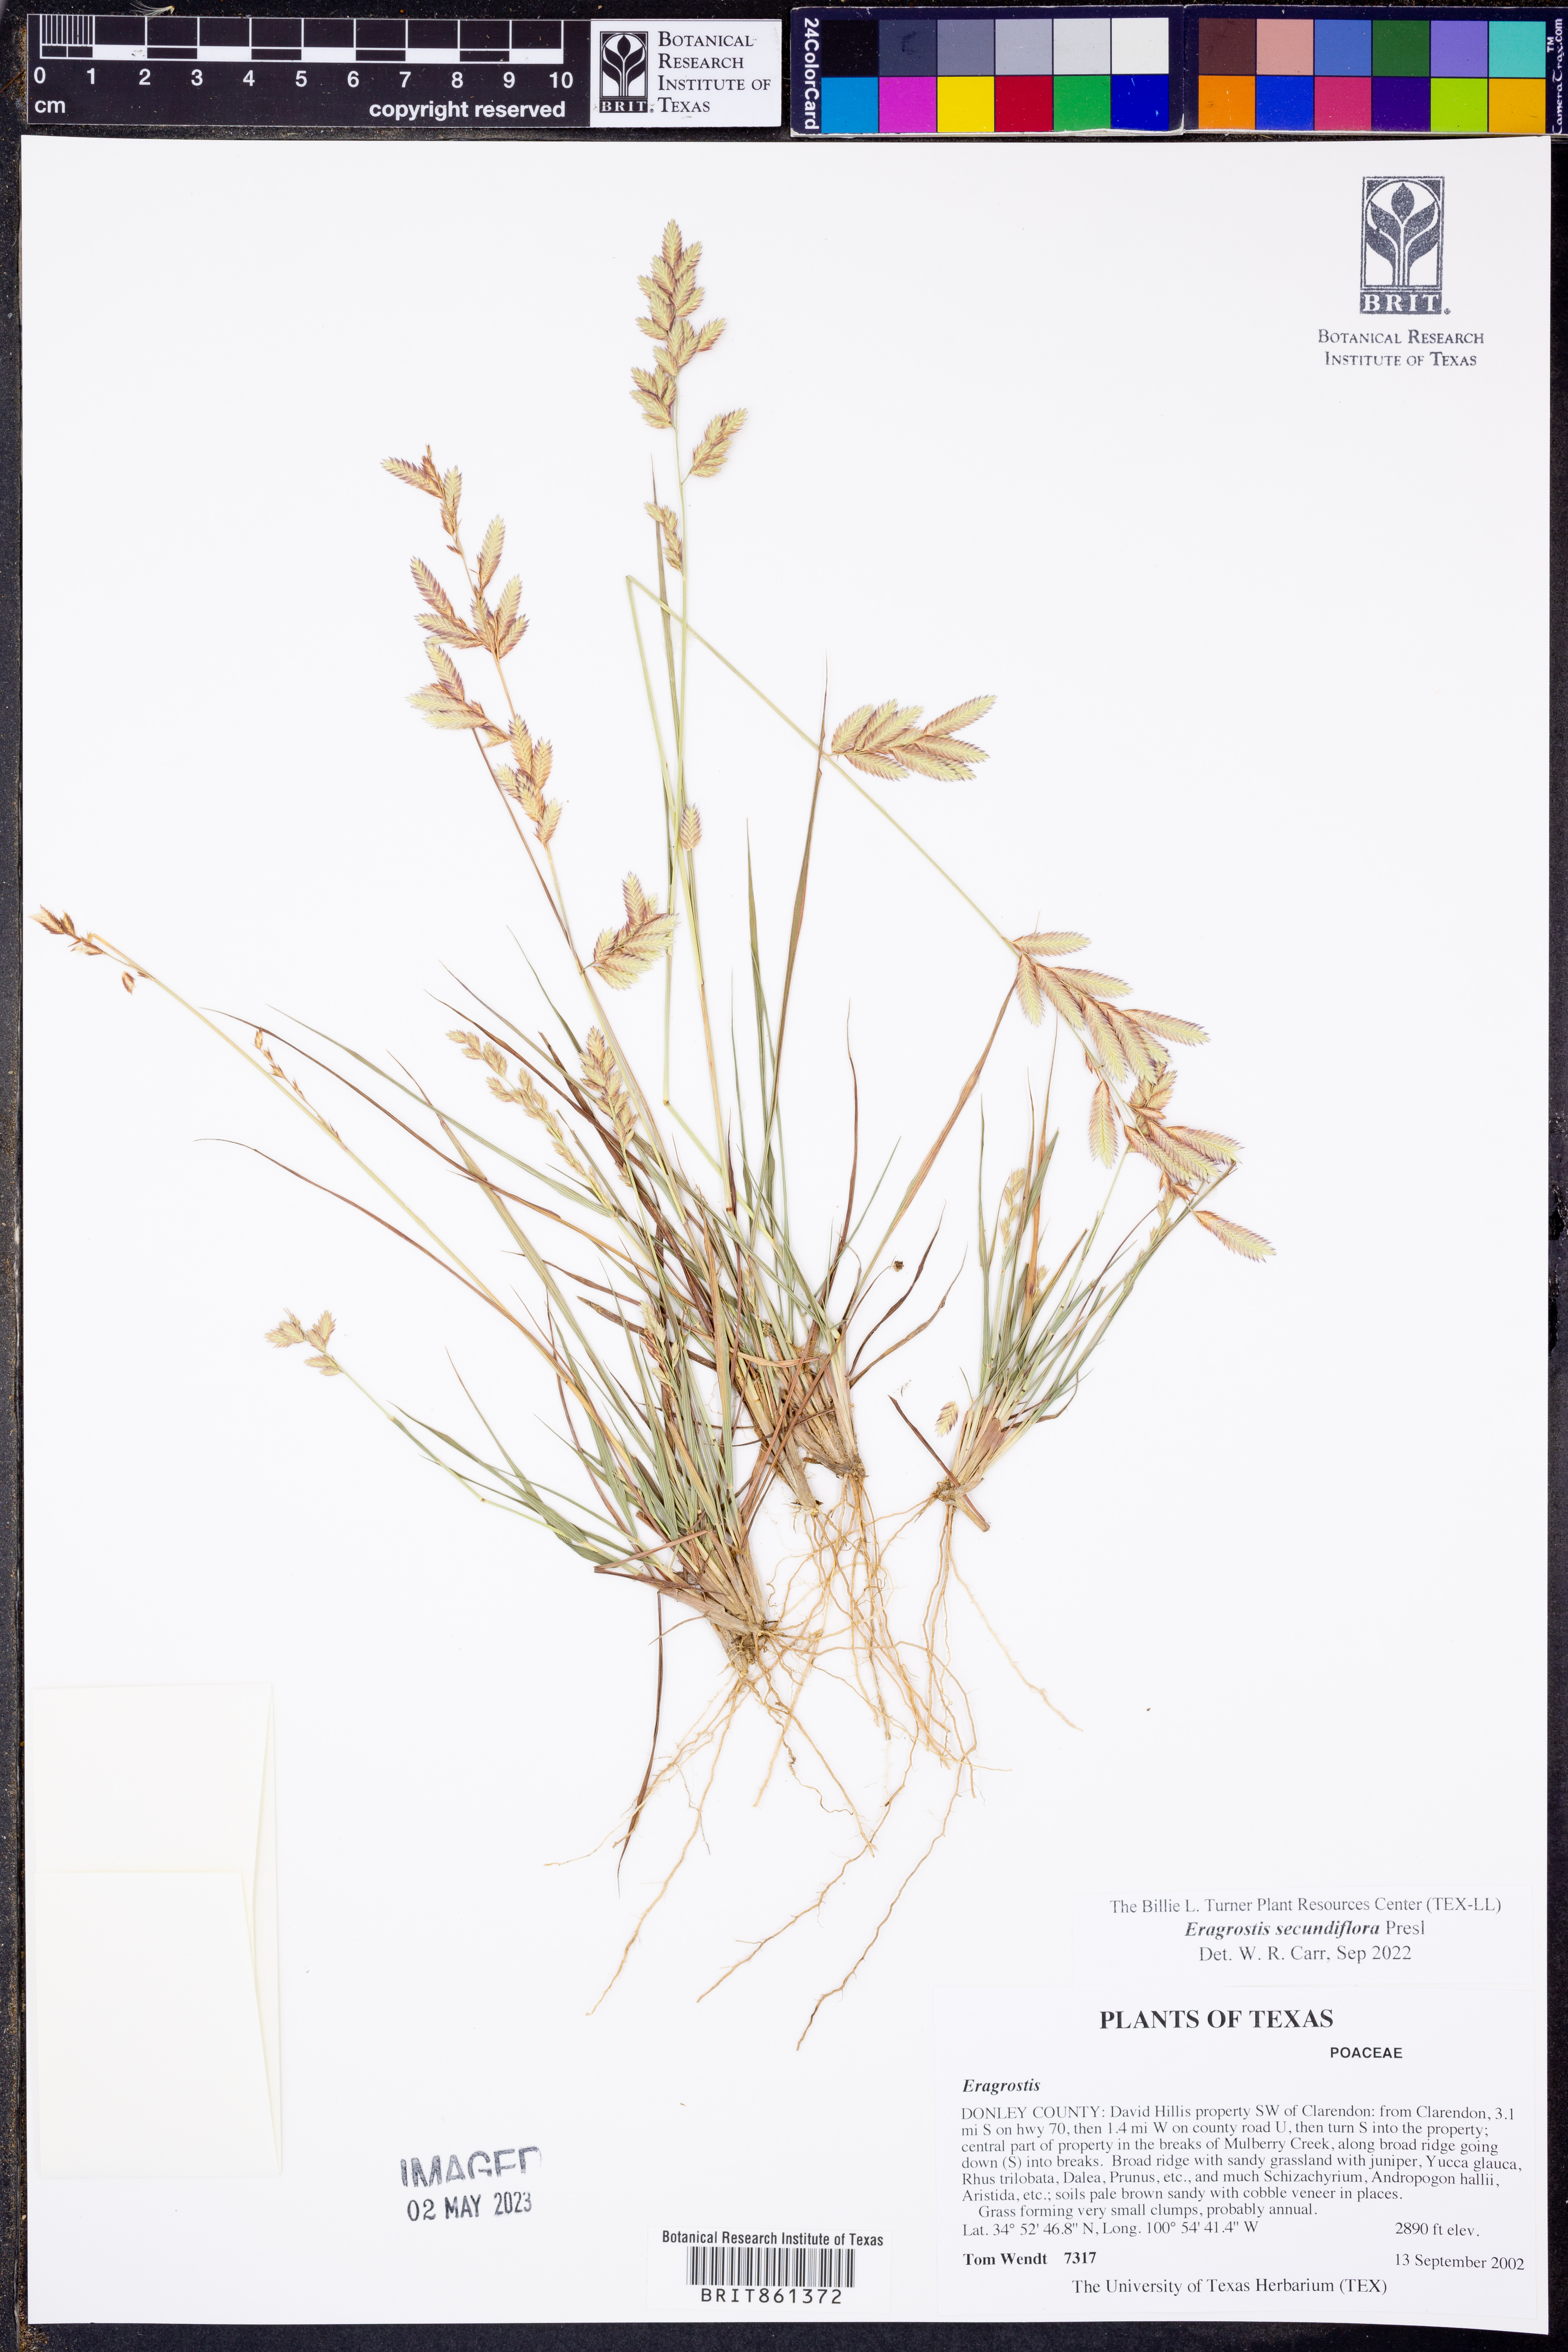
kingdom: Plantae
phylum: Tracheophyta
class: Liliopsida
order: Poales
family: Poaceae
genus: Eragrostis
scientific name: Eragrostis secundiflora
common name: Red love grass
